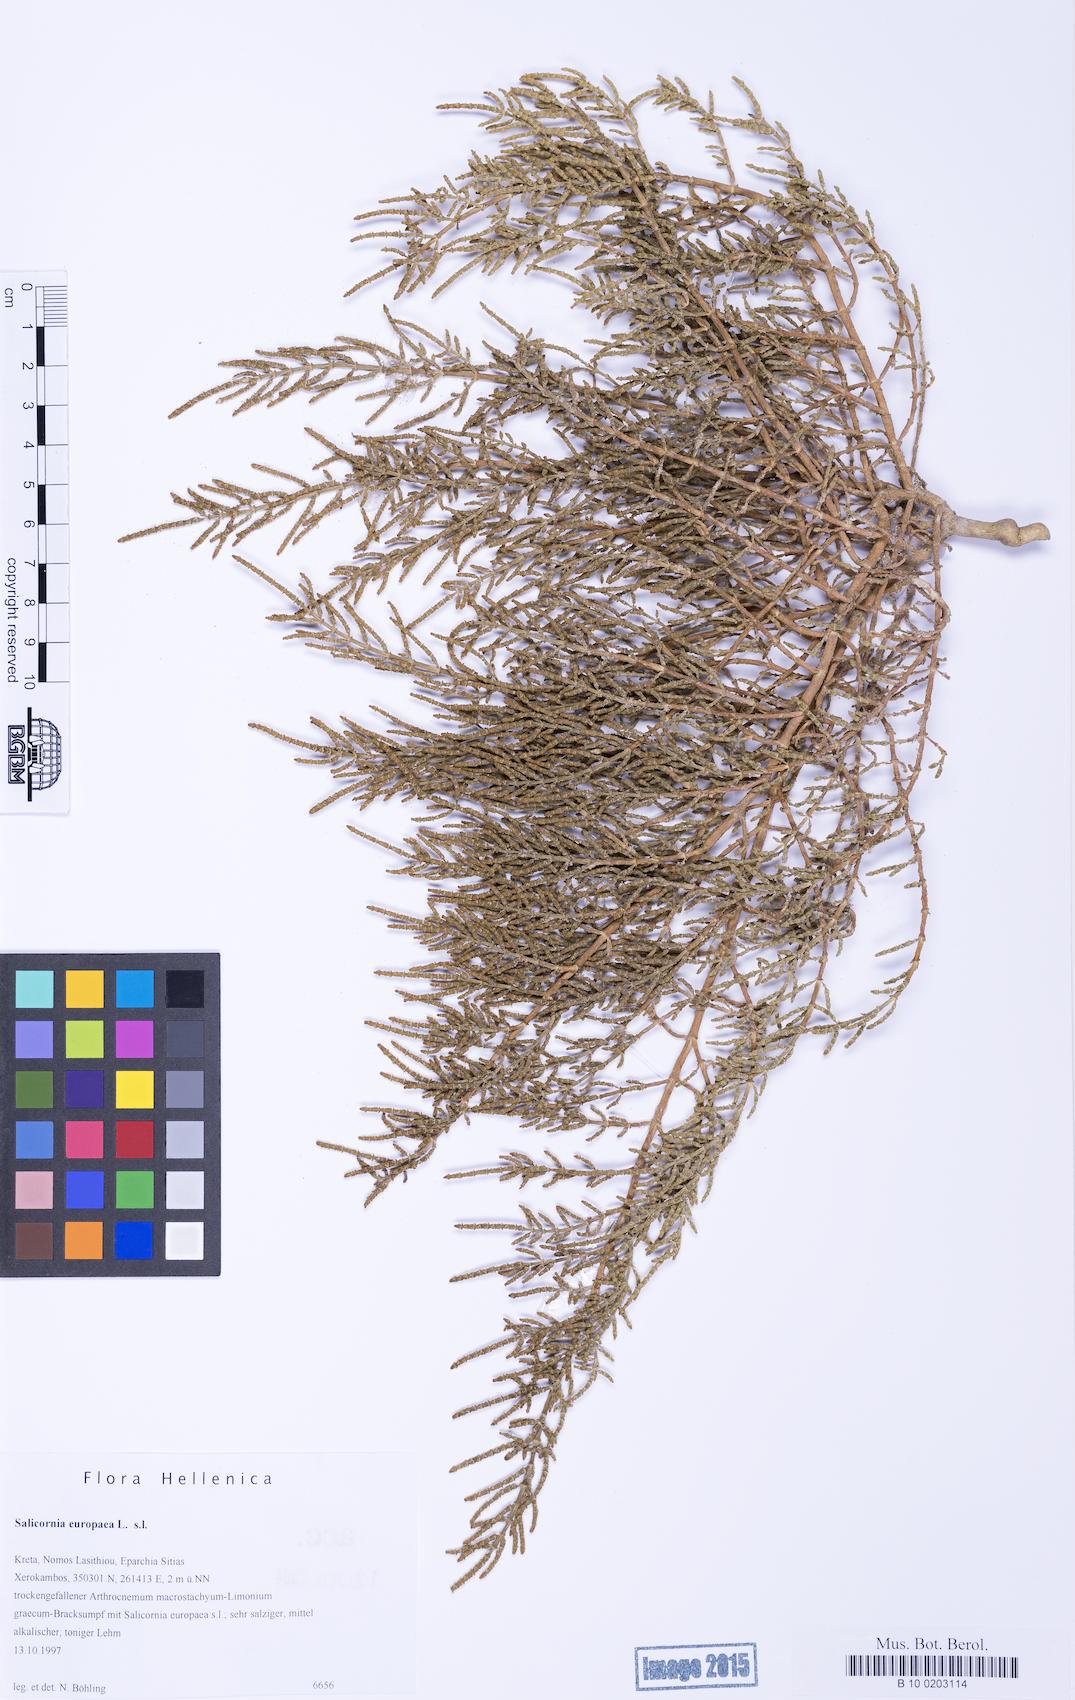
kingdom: Plantae
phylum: Tracheophyta
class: Magnoliopsida
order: Caryophyllales
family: Amaranthaceae
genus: Salicornia
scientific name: Salicornia perennans
